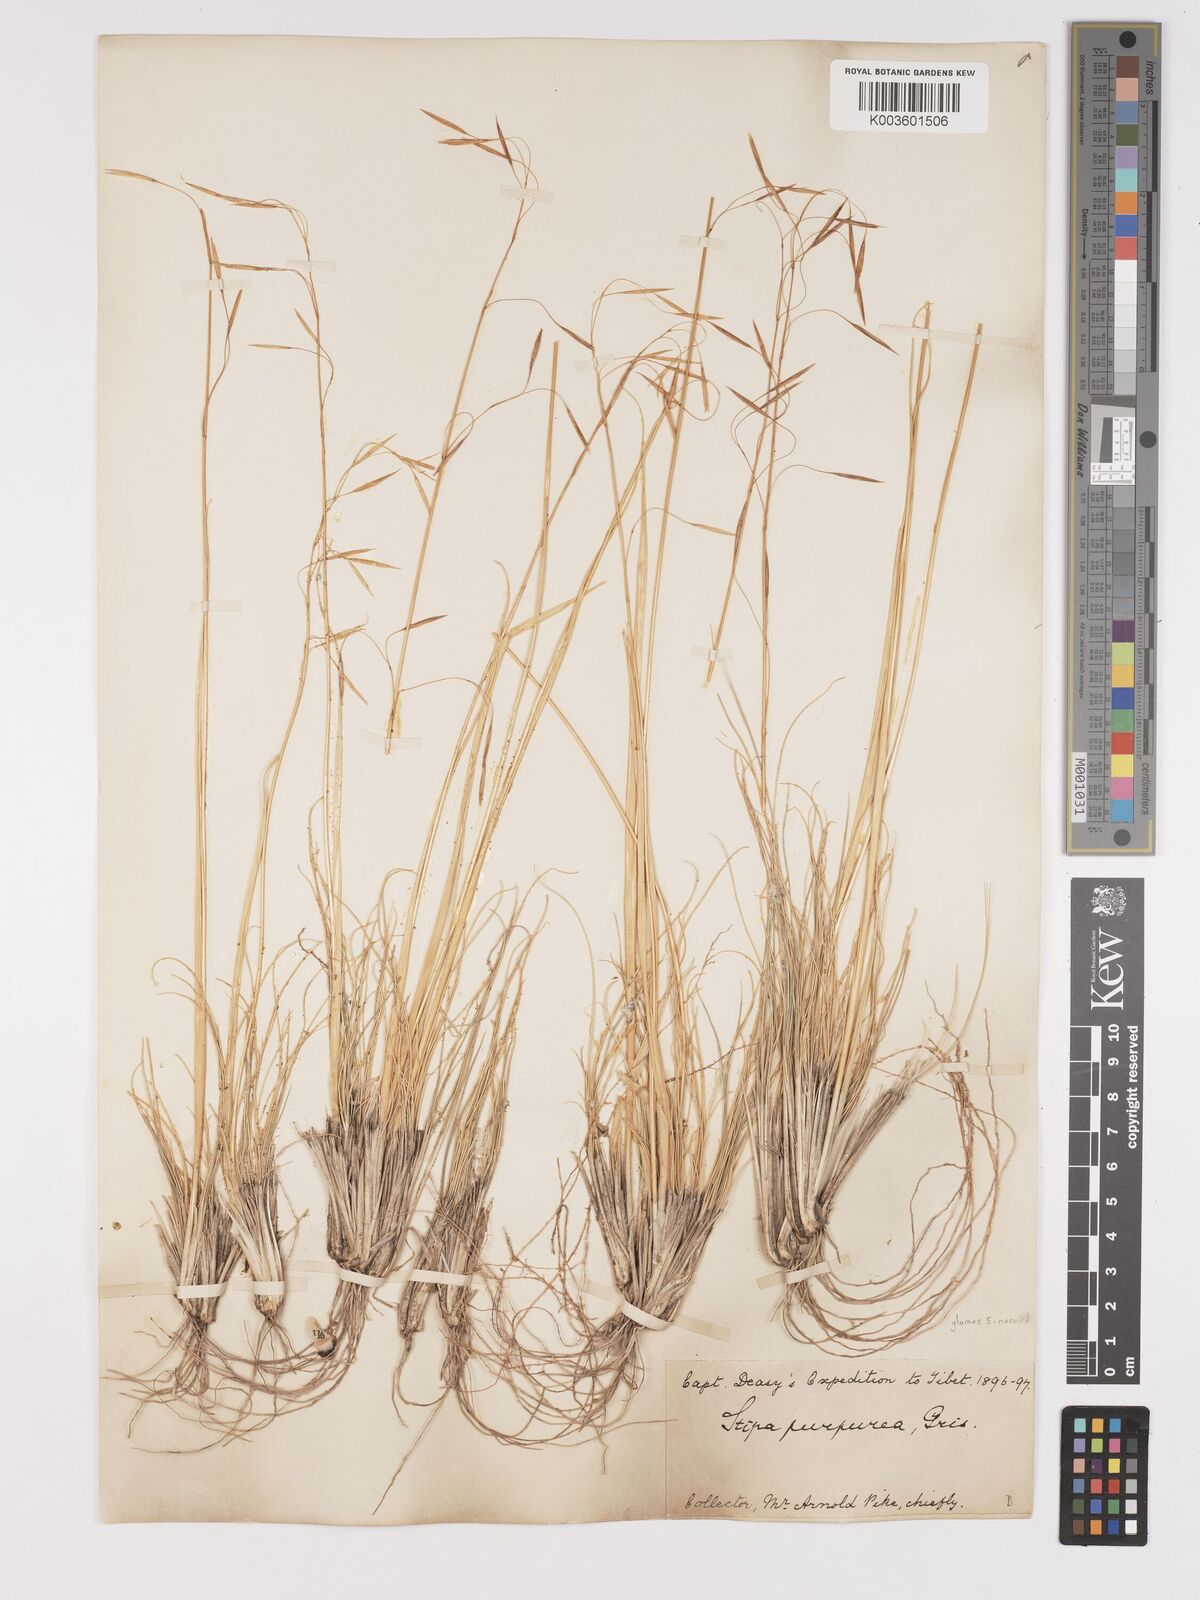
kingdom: Plantae
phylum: Tracheophyta
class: Liliopsida
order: Poales
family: Poaceae
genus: Stipa
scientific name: Stipa
